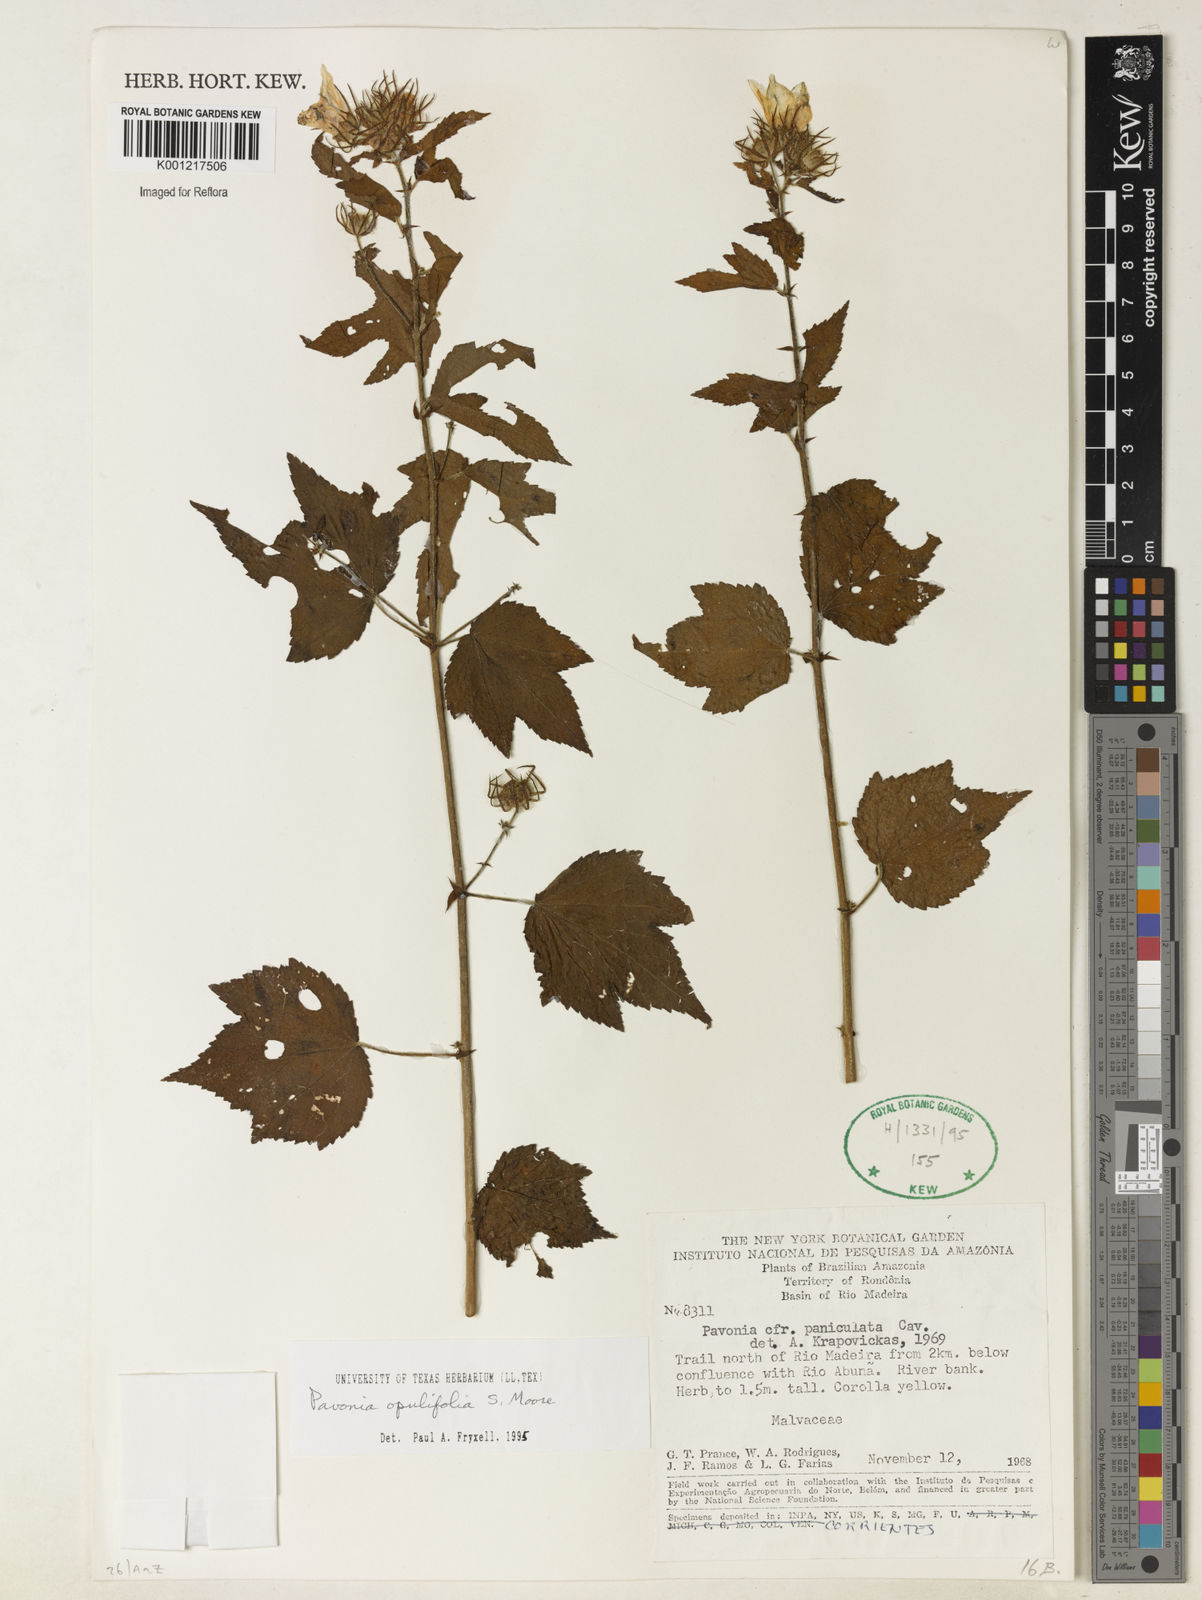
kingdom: Plantae
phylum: Tracheophyta
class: Magnoliopsida
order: Malvales
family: Malvaceae
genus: Pavonia
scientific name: Pavonia opulifolia
